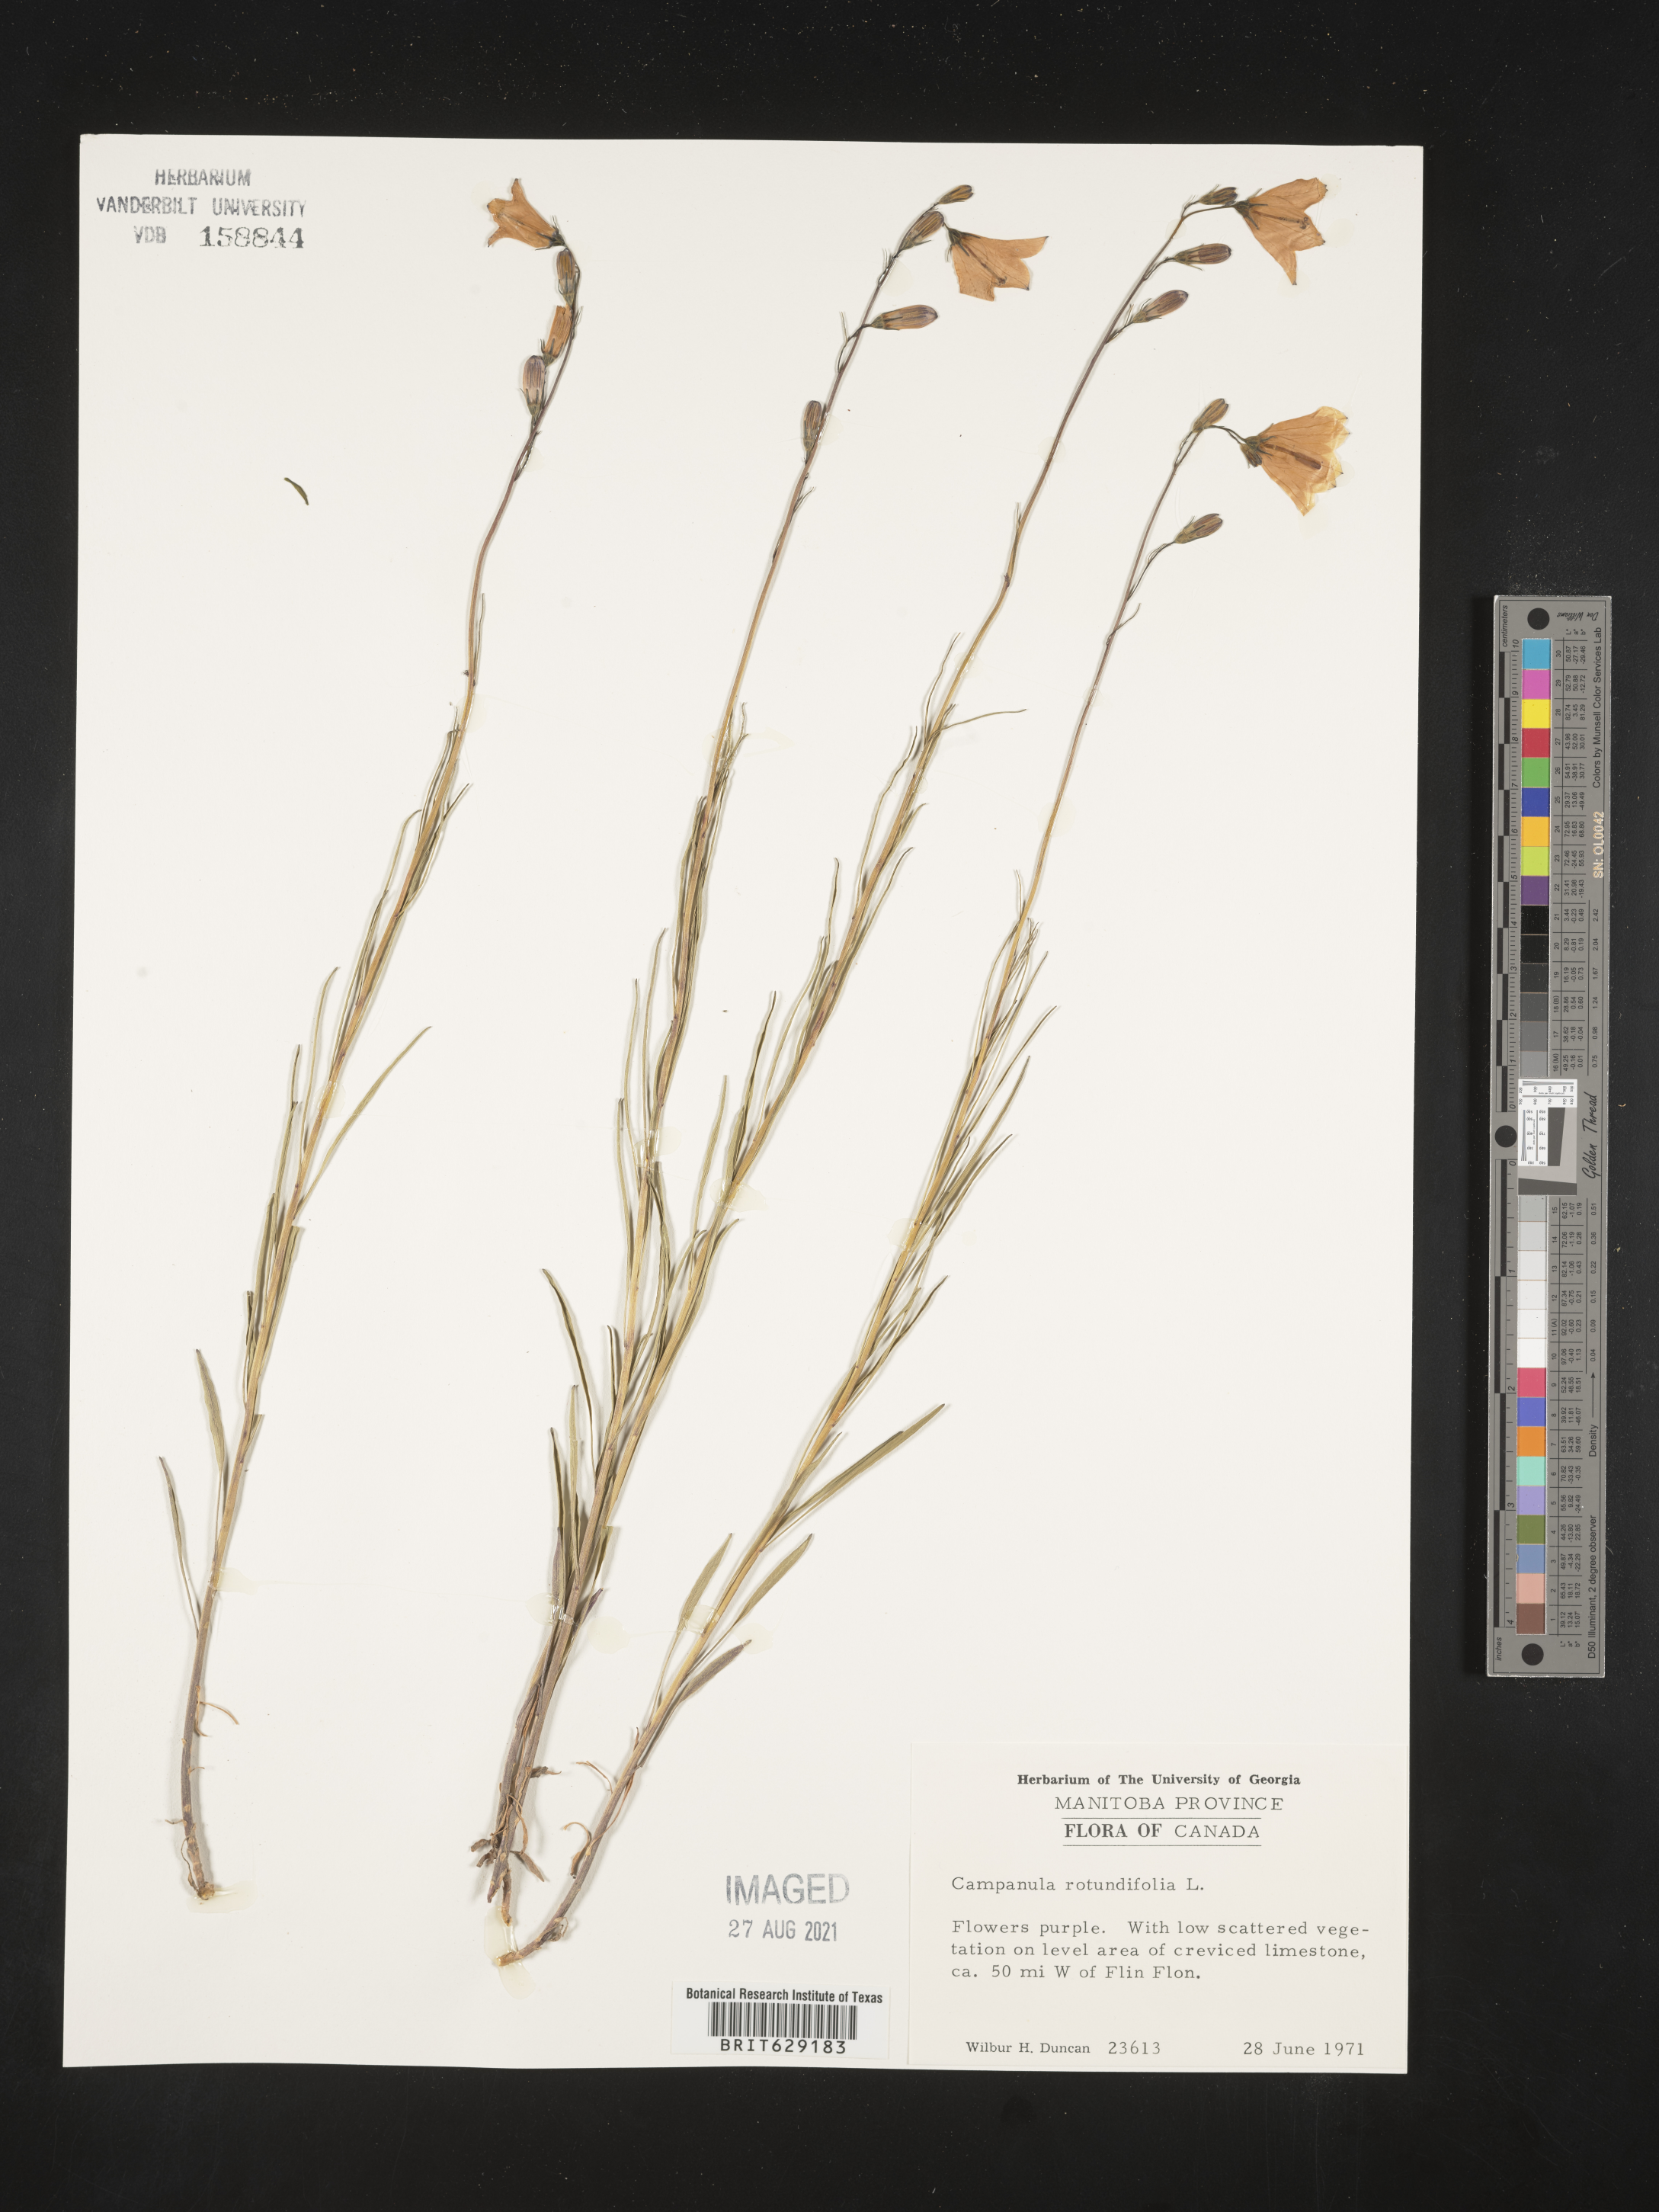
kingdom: Plantae
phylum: Tracheophyta
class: Magnoliopsida
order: Asterales
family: Campanulaceae
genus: Campanula
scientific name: Campanula rotundifolia
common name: Harebell
